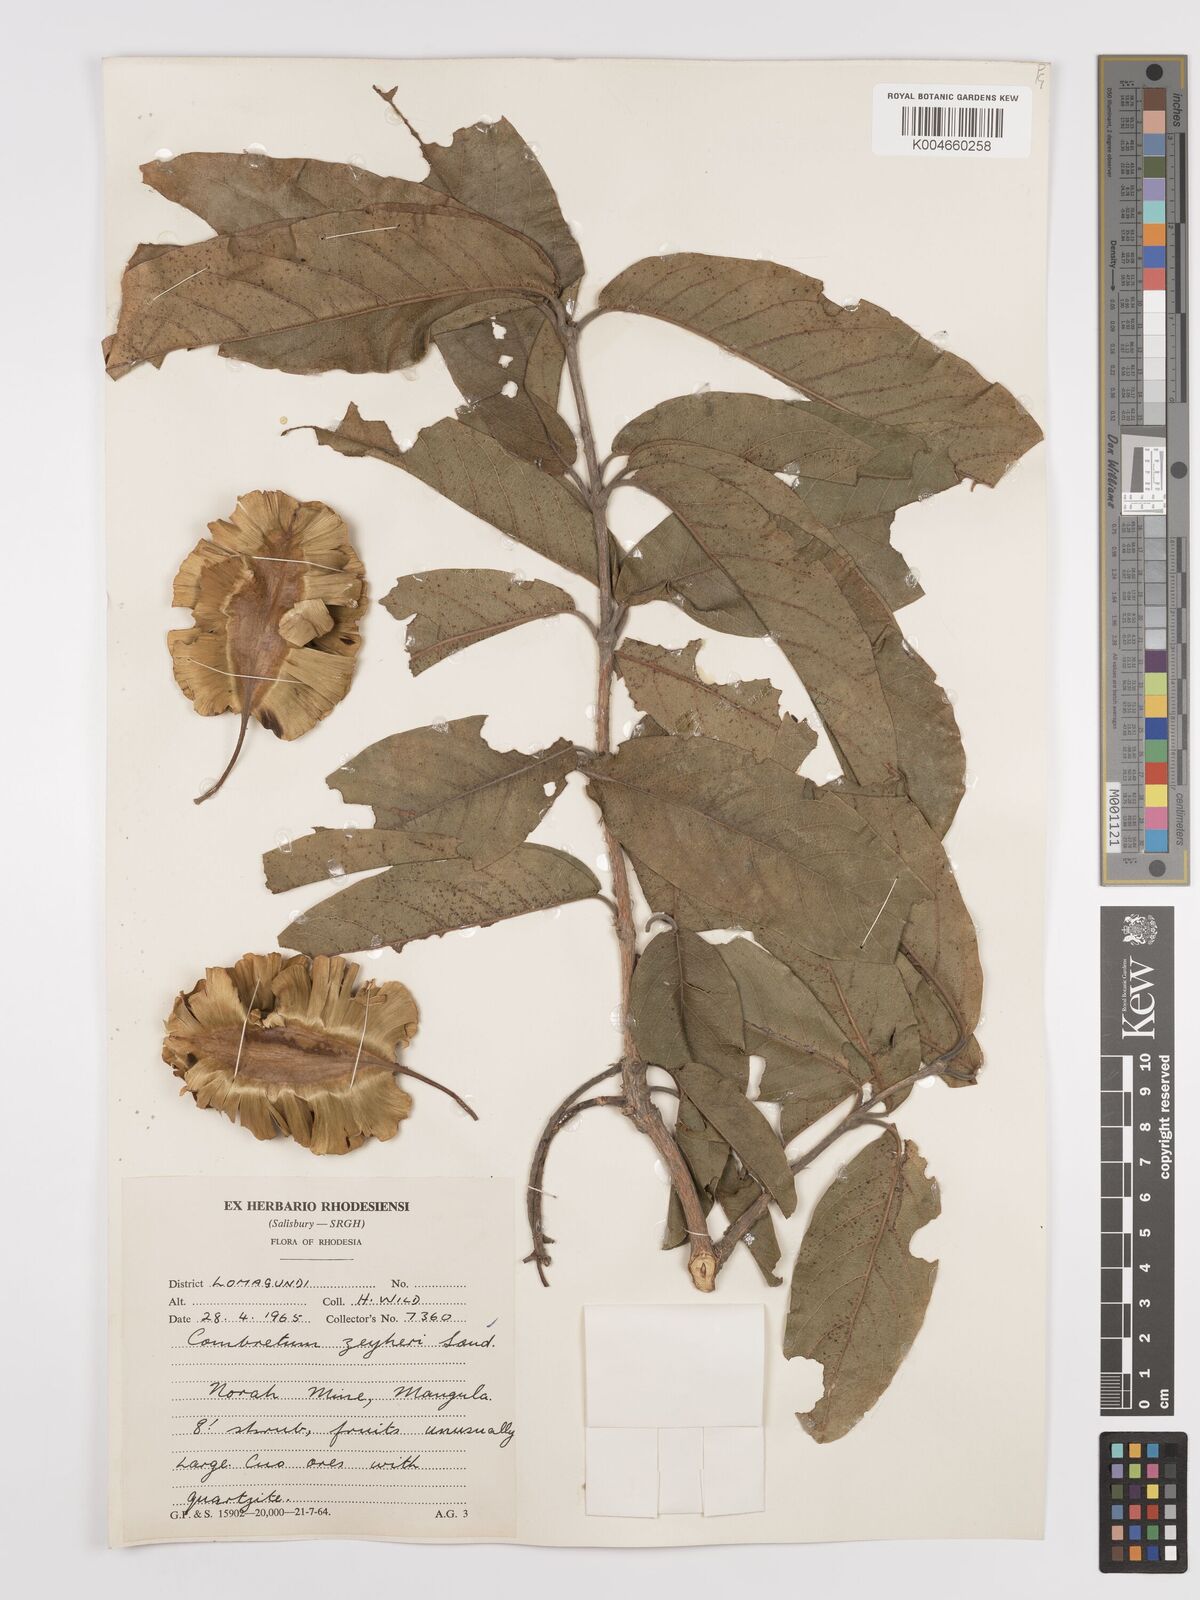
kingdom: Plantae
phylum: Tracheophyta
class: Magnoliopsida
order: Myrtales
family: Combretaceae
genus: Combretum
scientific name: Combretum zeyheri
